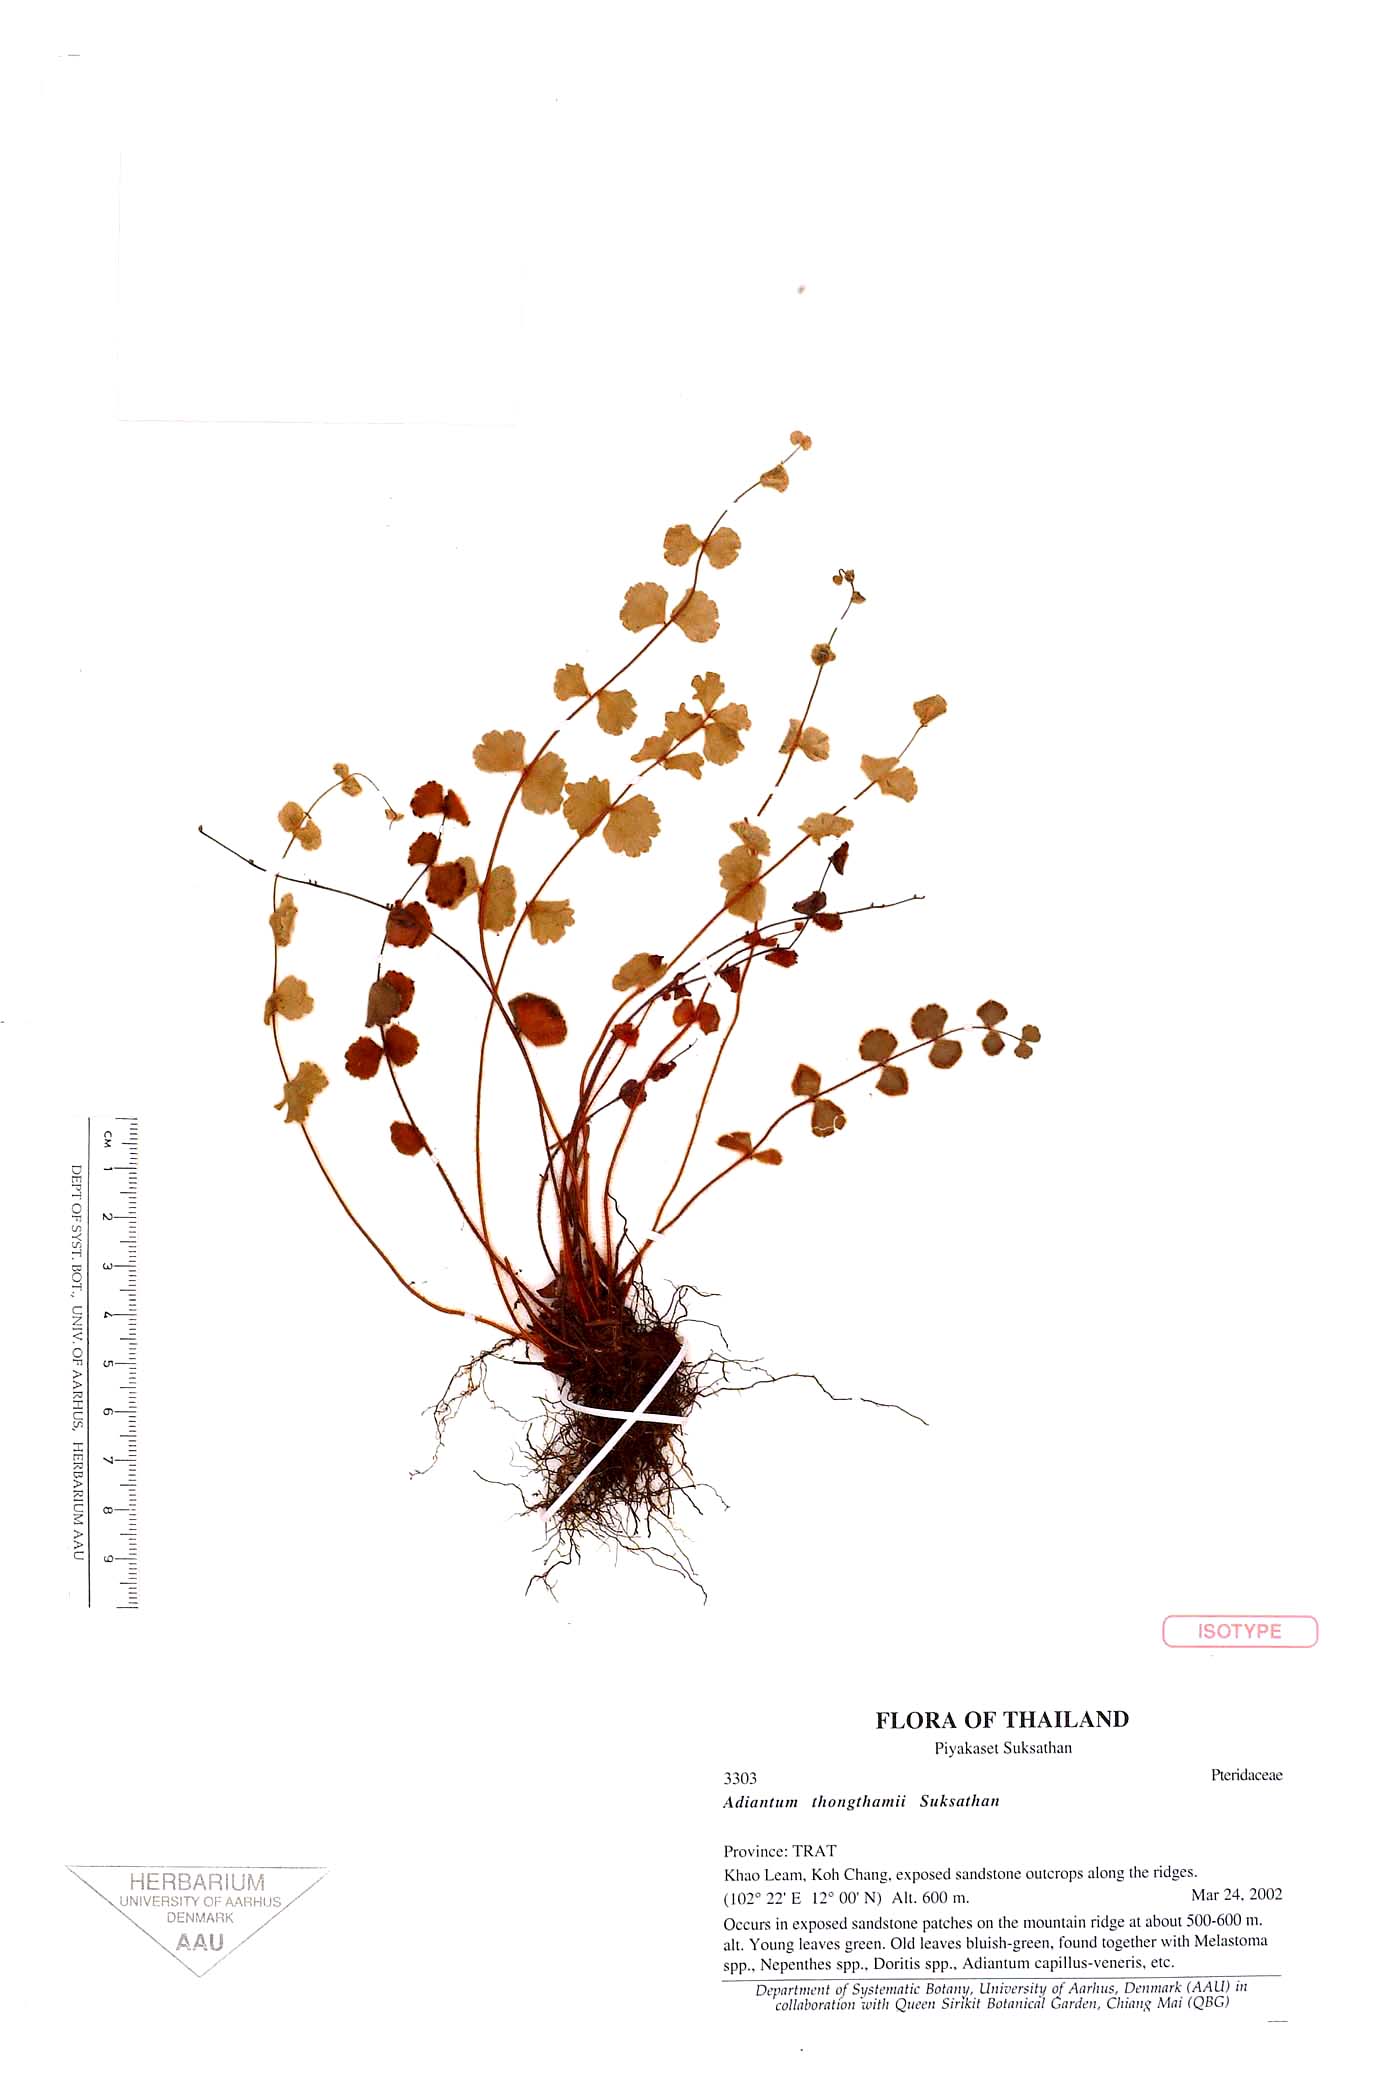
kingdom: Plantae
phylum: Tracheophyta
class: Polypodiopsida
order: Polypodiales
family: Pteridaceae
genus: Adiantum
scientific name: Adiantum thongthamii
